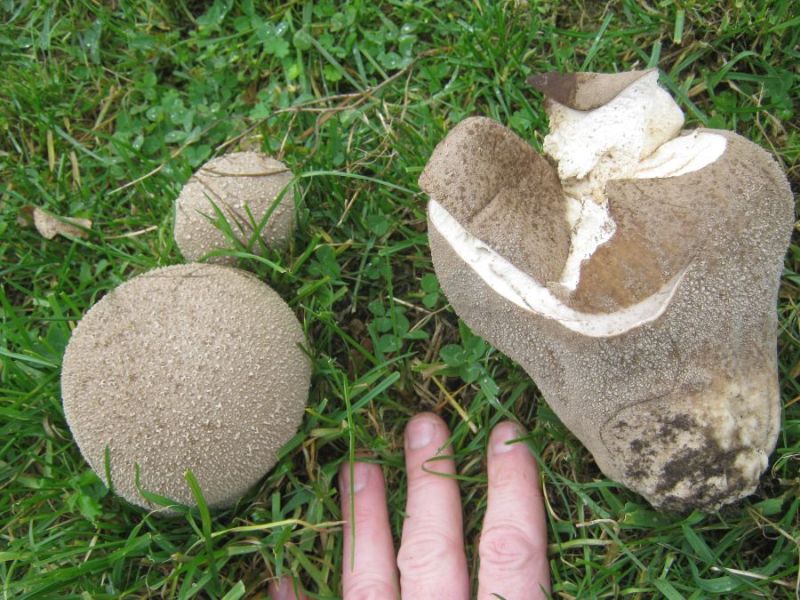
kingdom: Fungi
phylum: Basidiomycota
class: Agaricomycetes
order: Agaricales
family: Lycoperdaceae
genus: Bovistella
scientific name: Bovistella utriformis
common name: skællet støvbold
